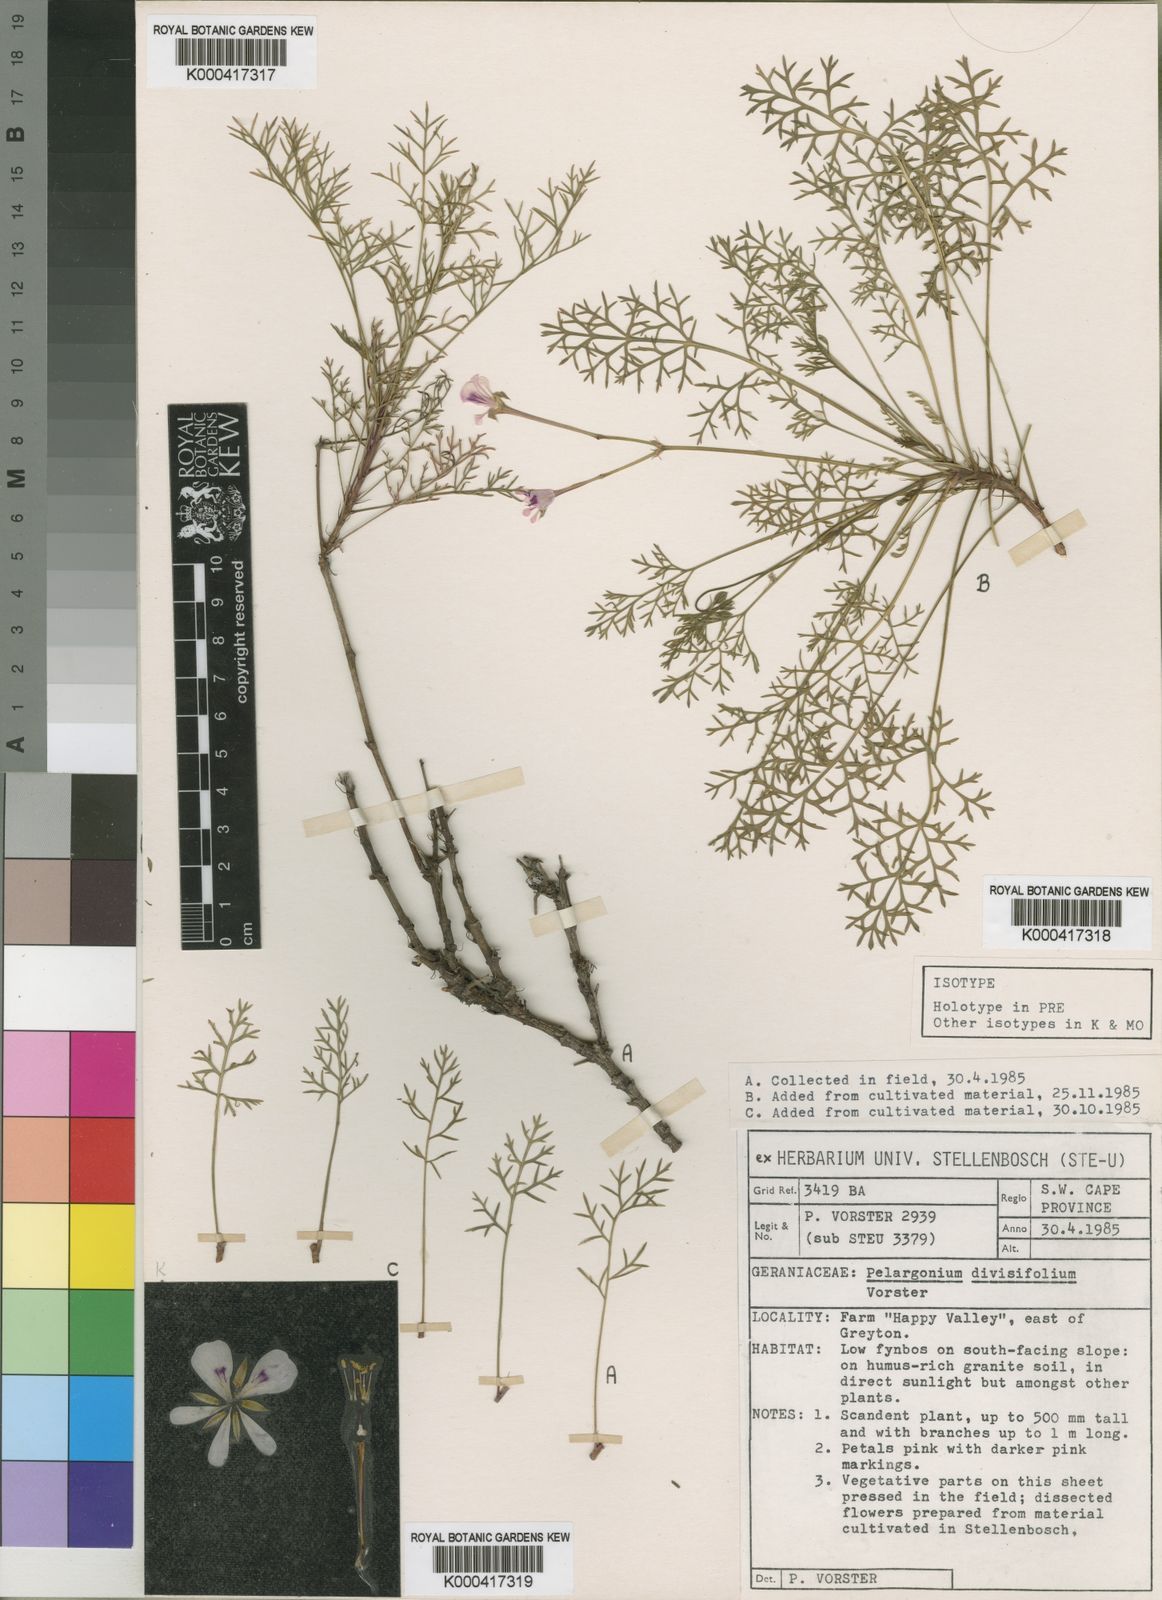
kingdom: Plantae
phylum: Tracheophyta
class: Magnoliopsida
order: Geraniales
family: Geraniaceae
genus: Pelargonium
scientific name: Pelargonium artemisiifolium
